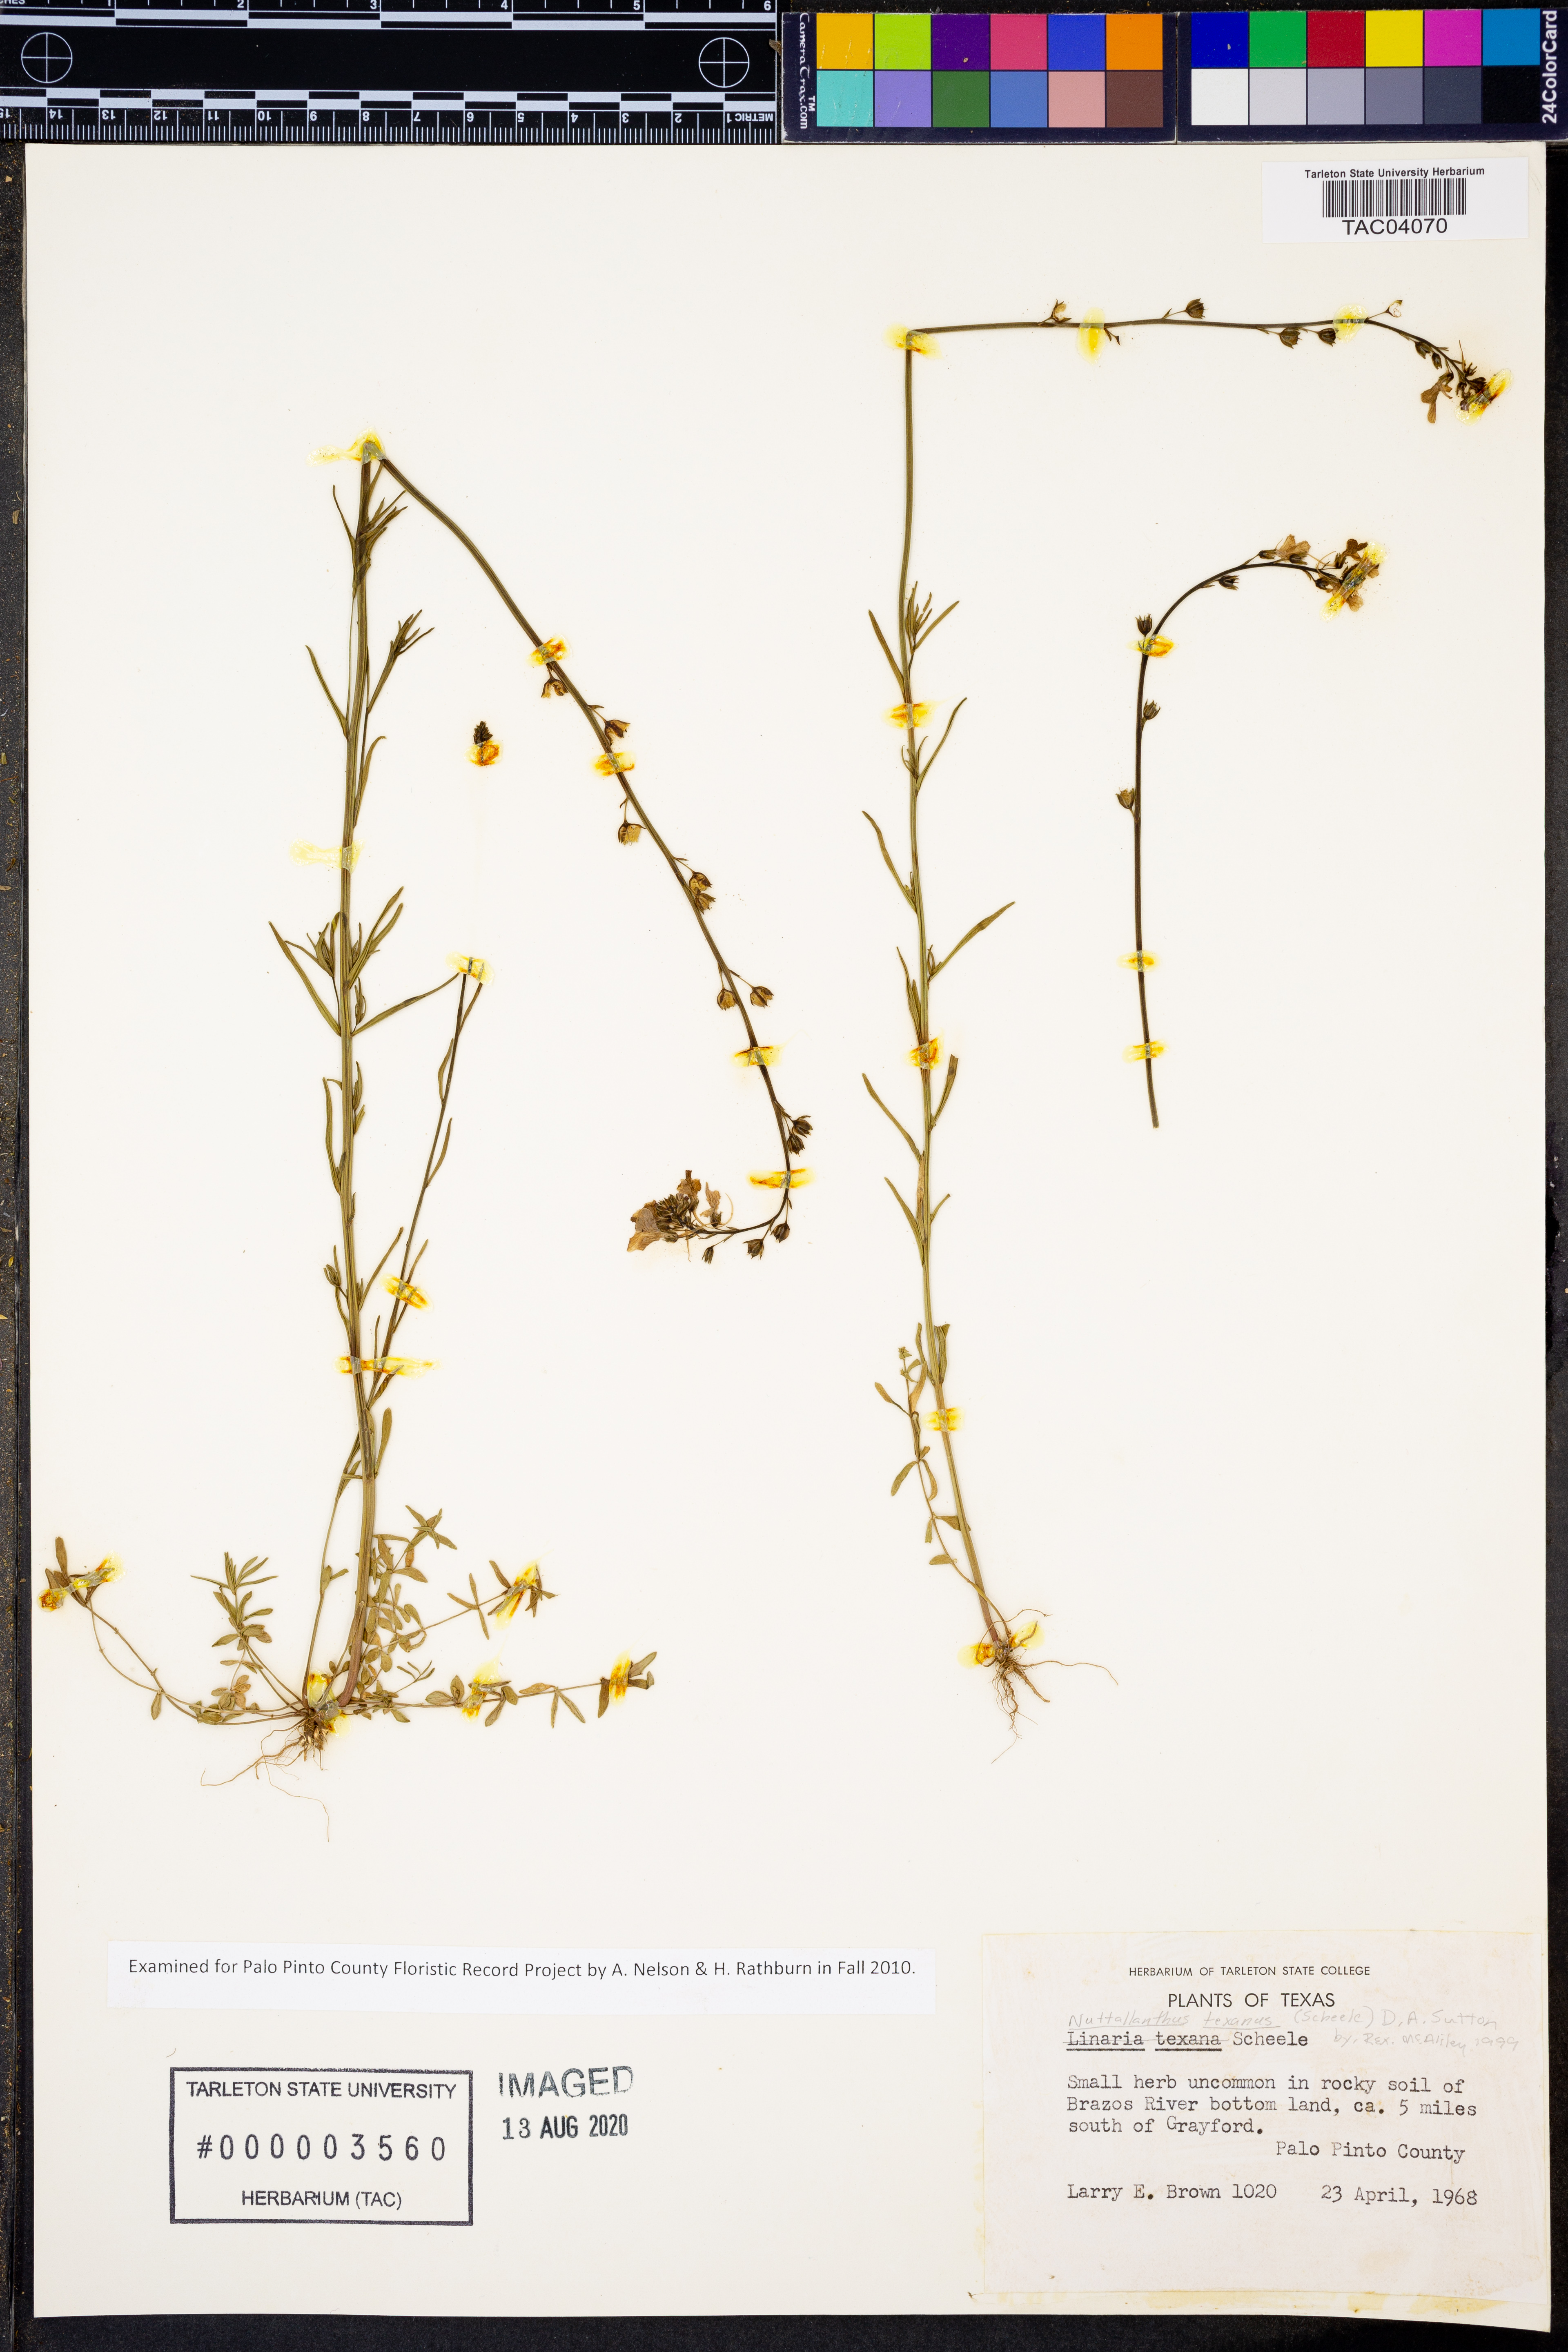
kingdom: Plantae
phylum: Tracheophyta
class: Magnoliopsida
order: Lamiales
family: Plantaginaceae
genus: Nuttallanthus
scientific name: Nuttallanthus texanus
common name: Texas toadflax
